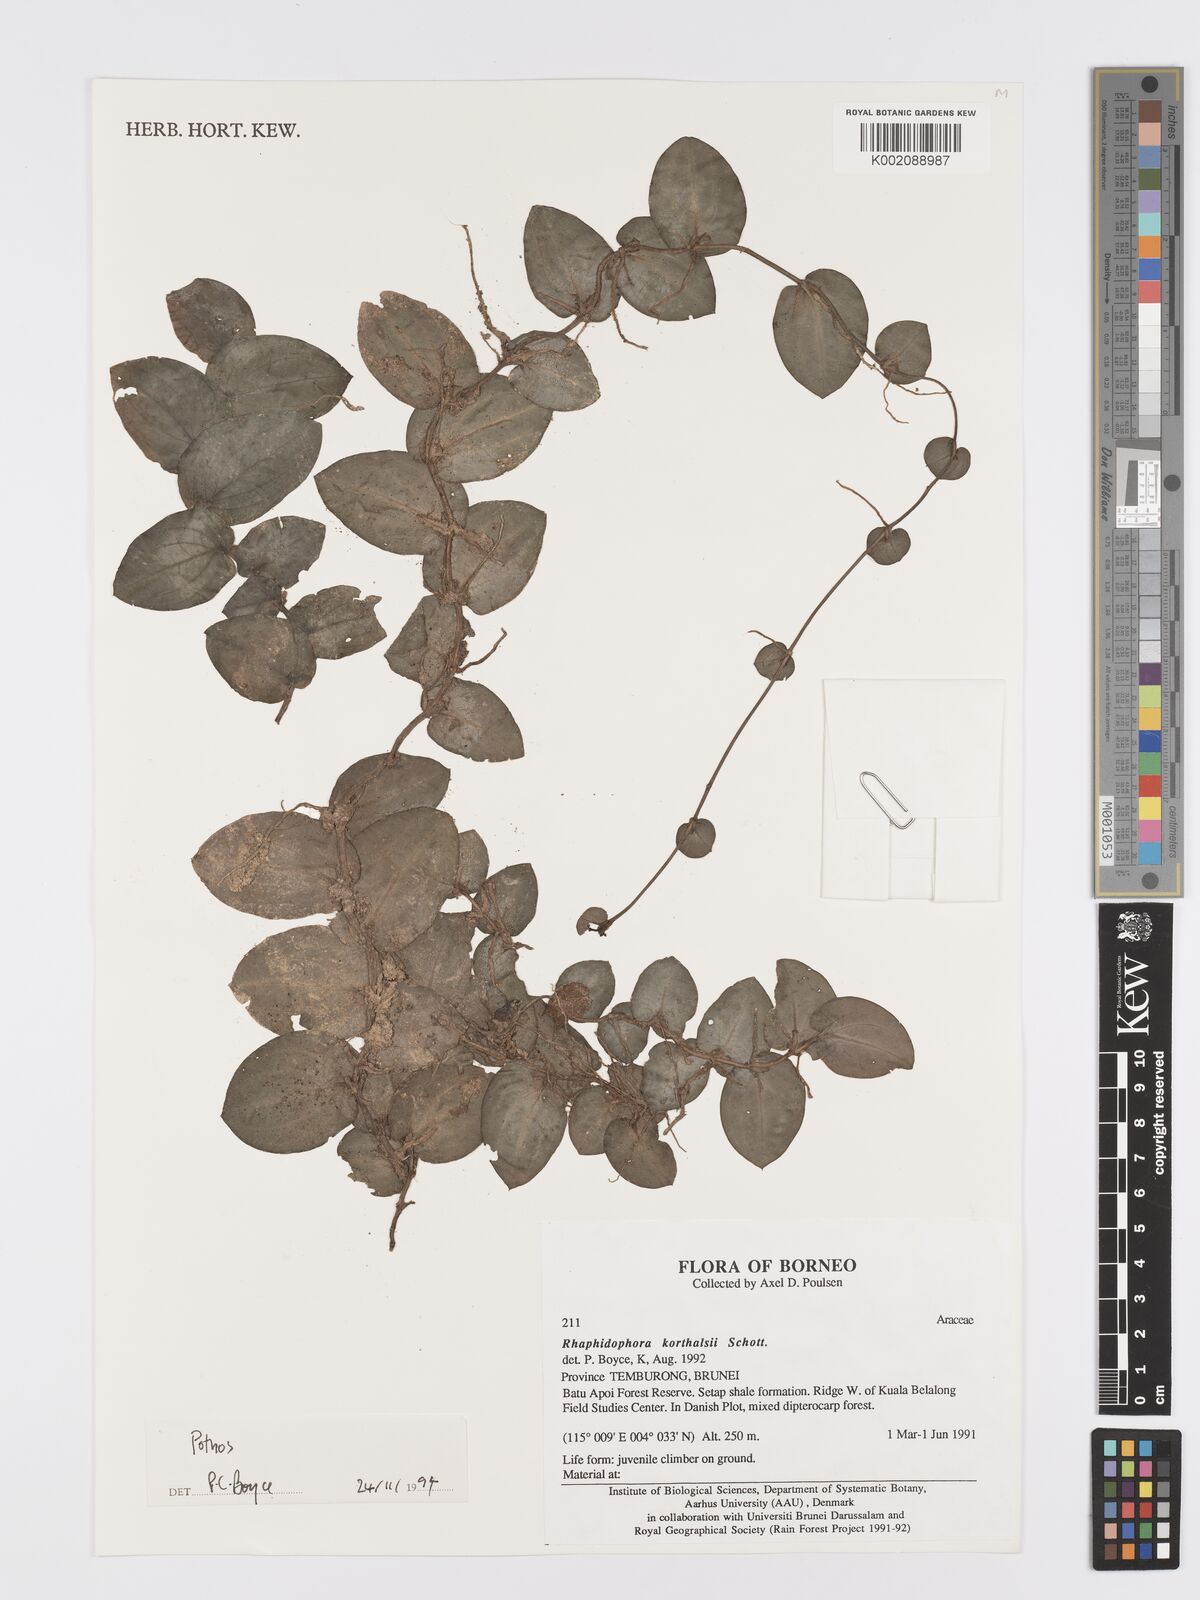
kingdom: Plantae
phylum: Tracheophyta
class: Liliopsida
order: Alismatales
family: Araceae
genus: Pothos
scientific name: Pothos
